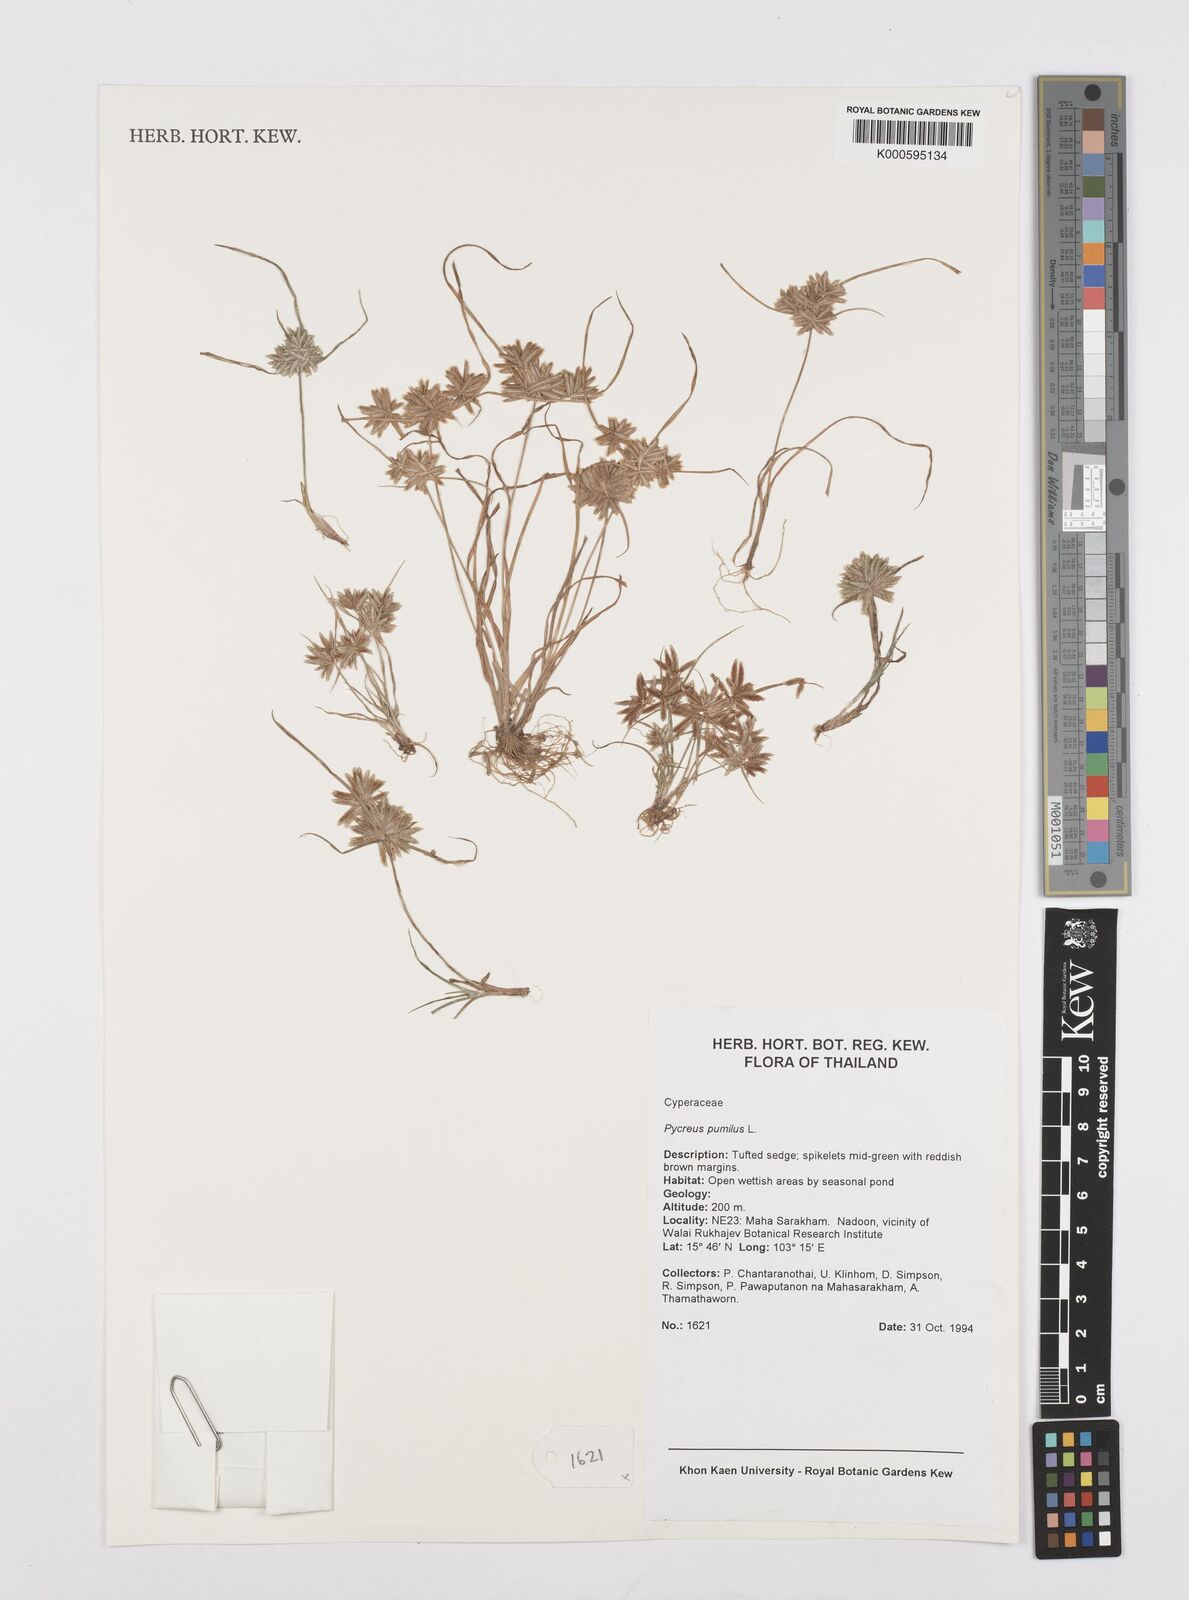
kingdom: Plantae
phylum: Tracheophyta
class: Liliopsida
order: Poales
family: Cyperaceae
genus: Cyperus
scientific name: Cyperus pumilus
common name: Low flatsedge
